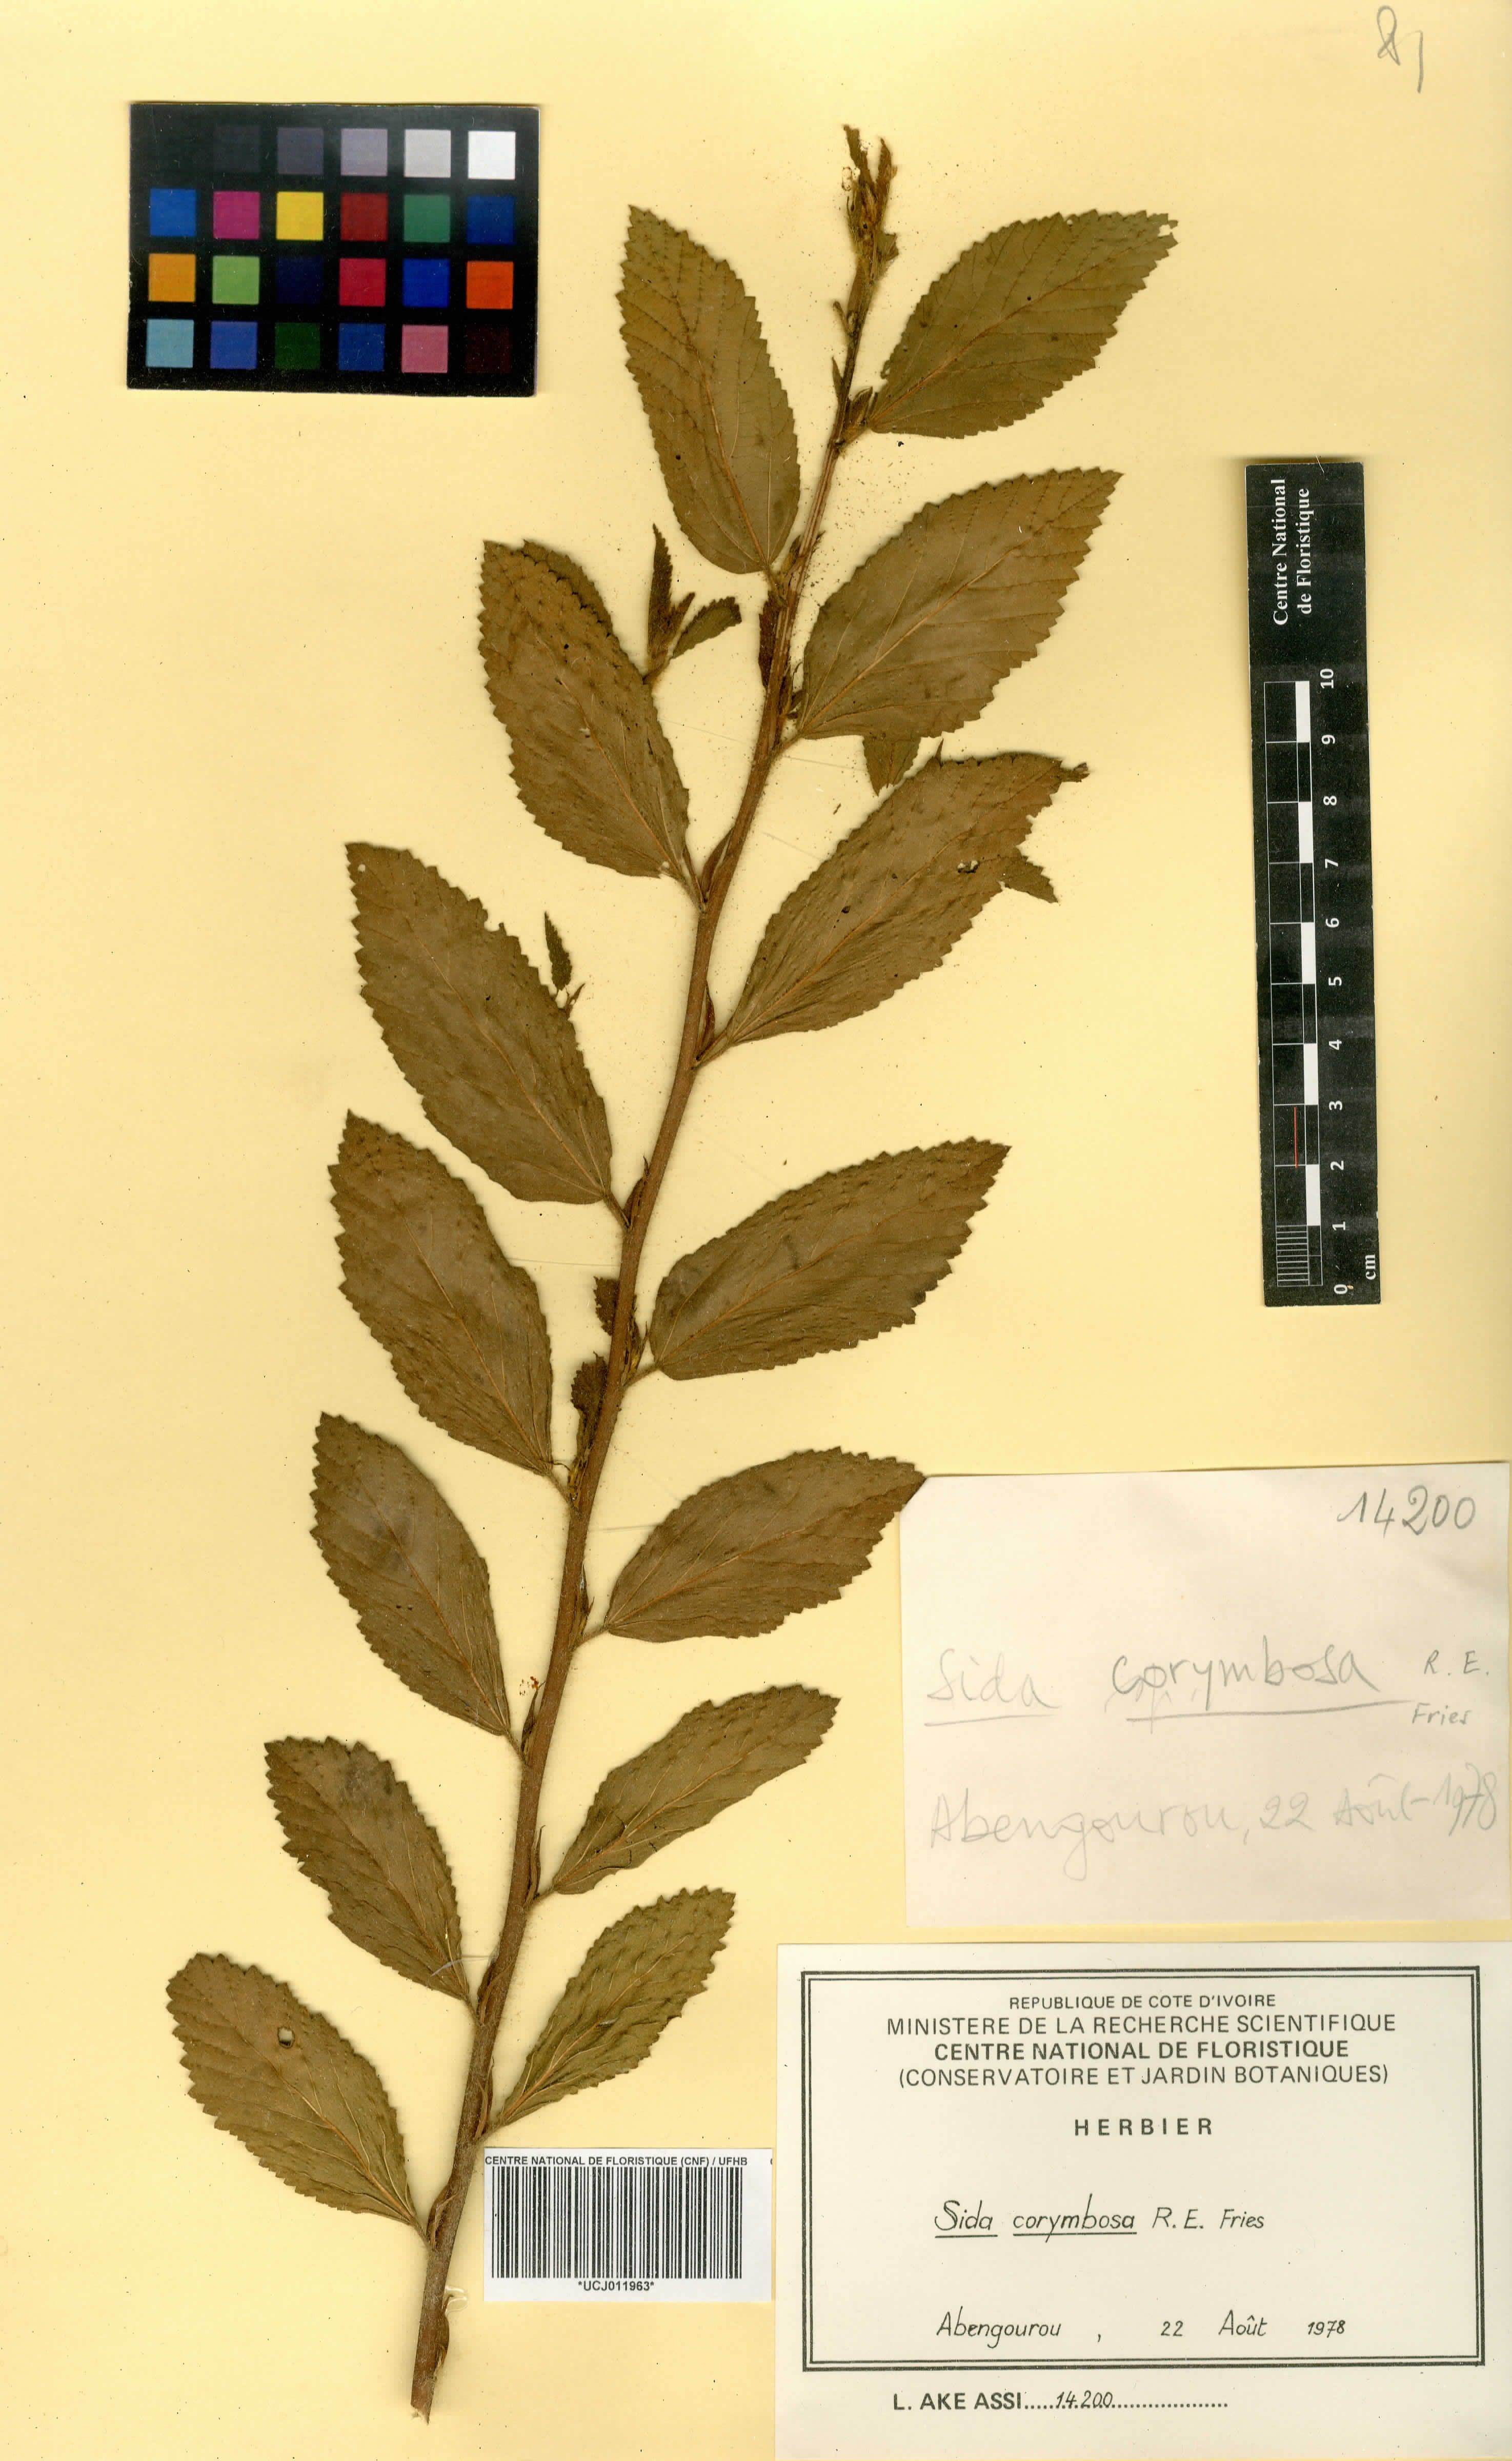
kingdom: Plantae
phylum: Tracheophyta
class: Magnoliopsida
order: Malvales
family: Malvaceae
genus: Sida
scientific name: Sida collina
